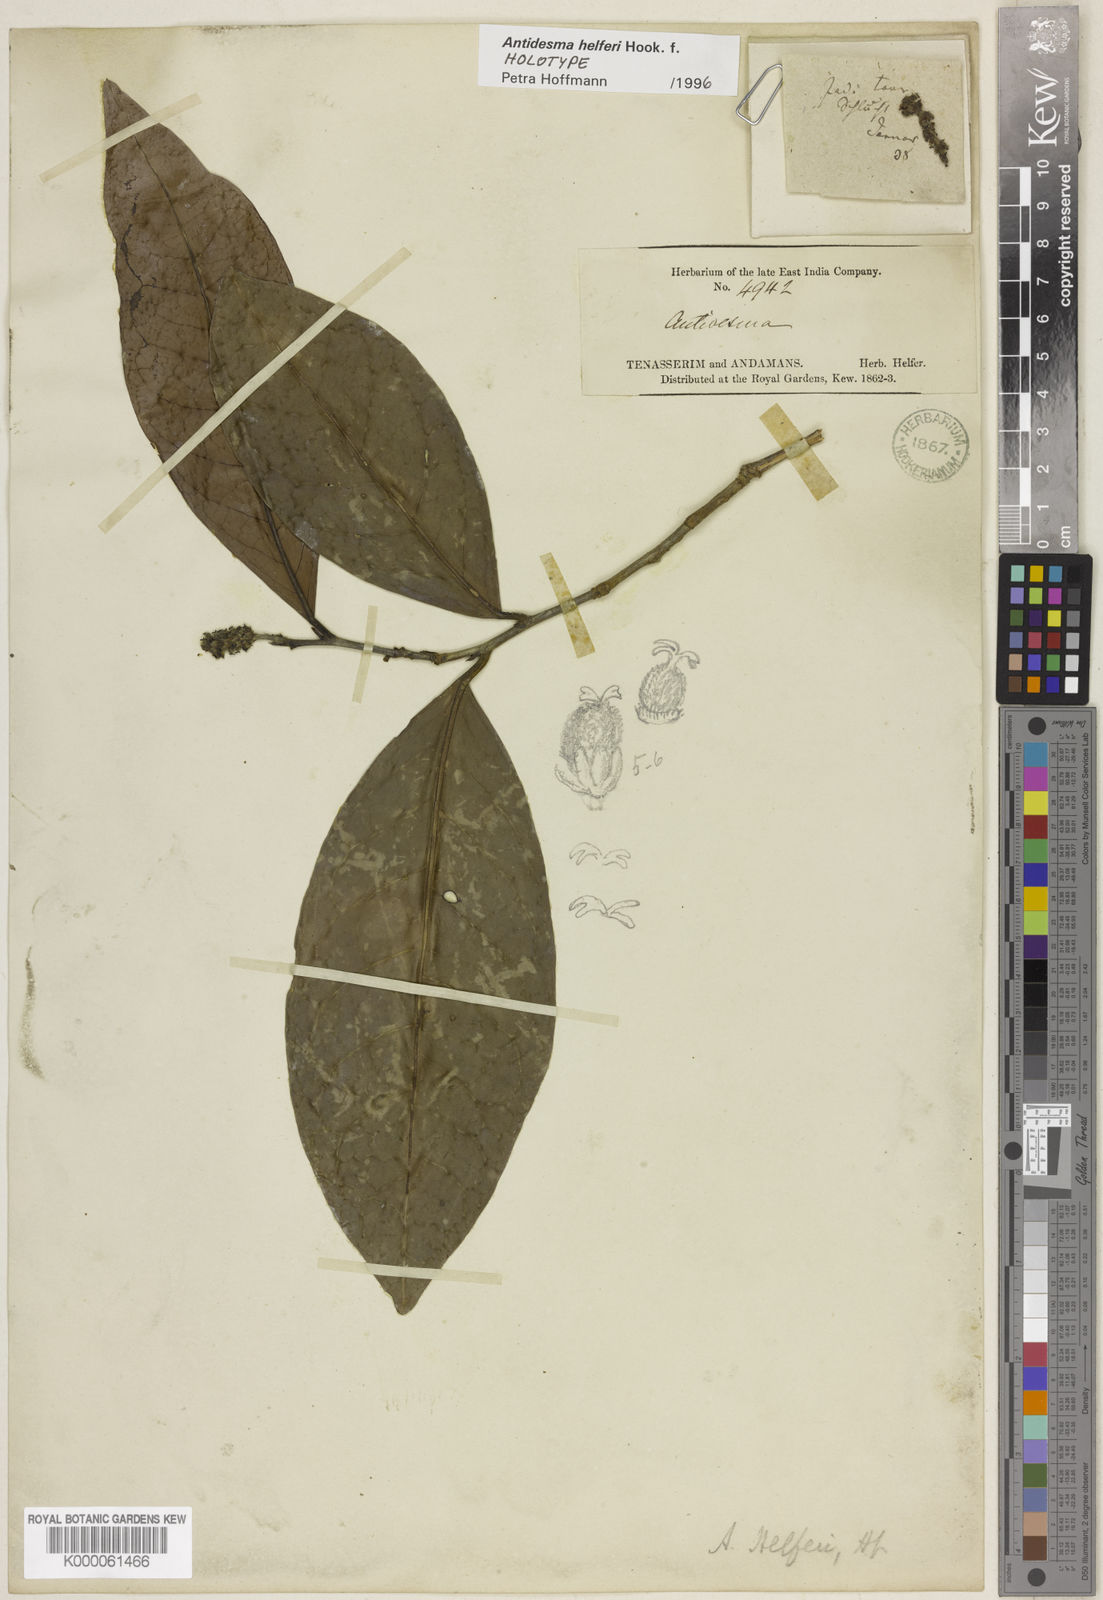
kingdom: Plantae
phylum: Tracheophyta
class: Magnoliopsida
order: Malpighiales
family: Phyllanthaceae
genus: Antidesma
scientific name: Antidesma helferi
